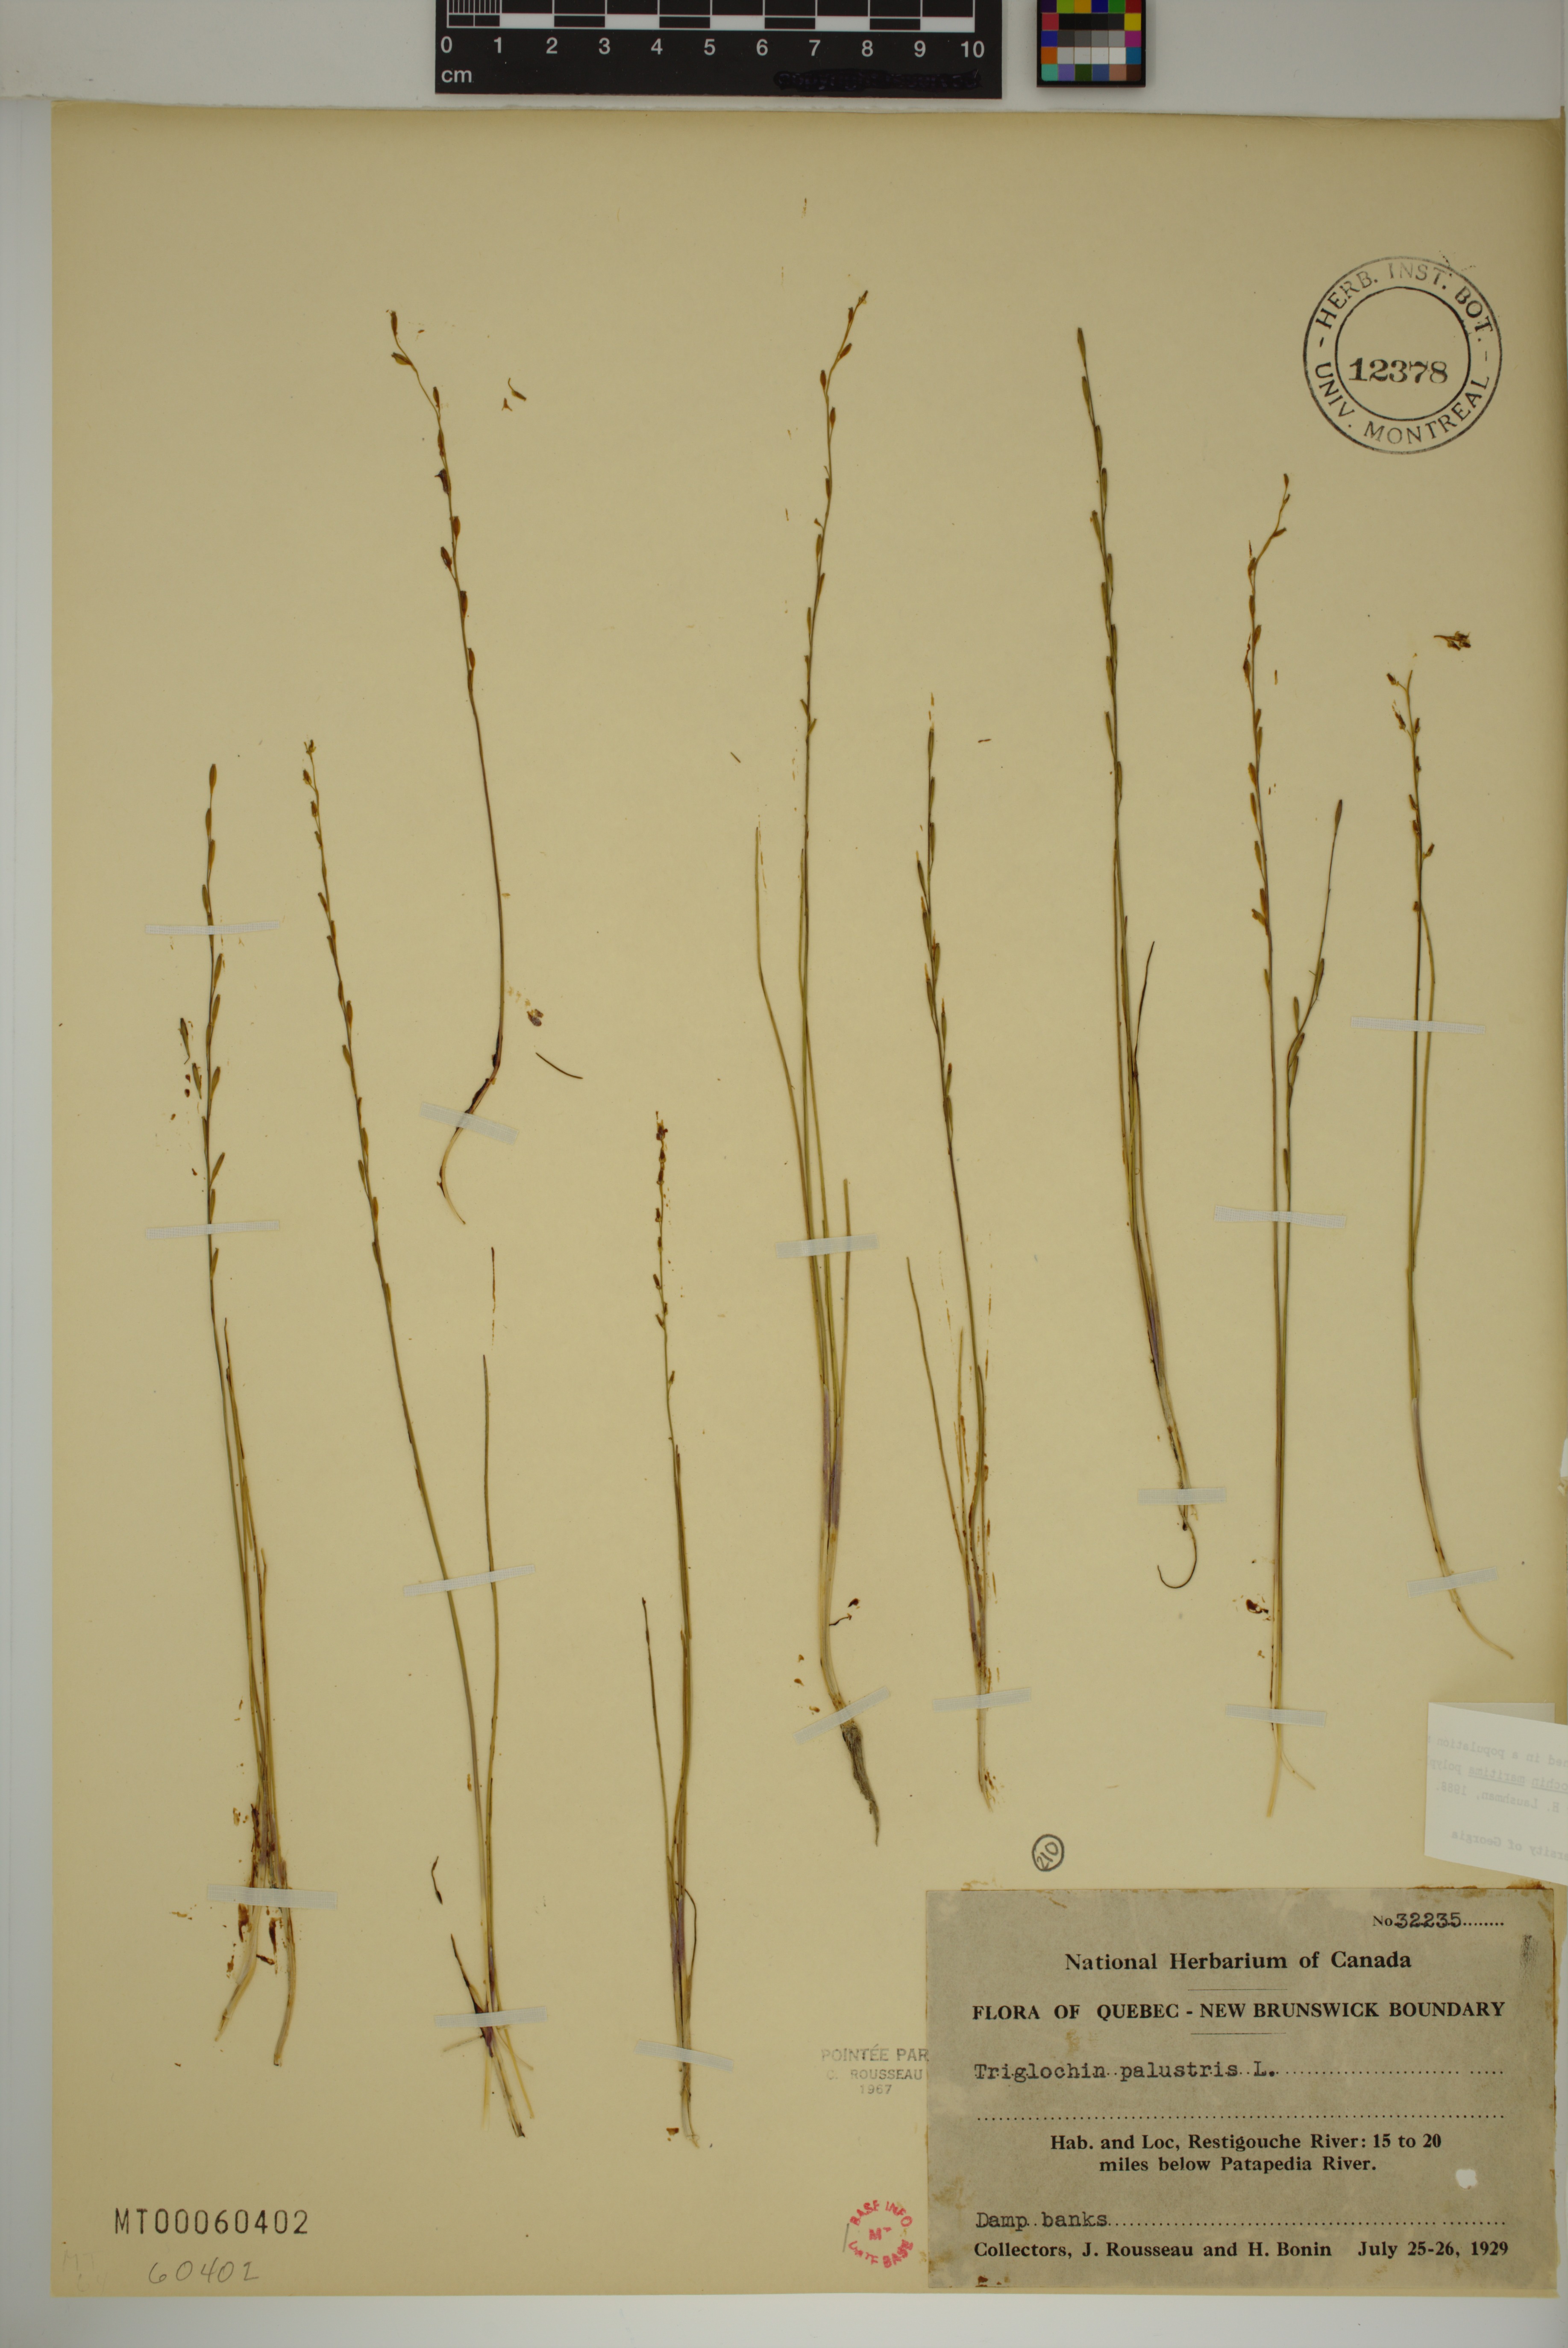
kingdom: Plantae
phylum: Tracheophyta
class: Liliopsida
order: Alismatales
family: Juncaginaceae
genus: Triglochin
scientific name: Triglochin palustris
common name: Marsh arrowgrass
